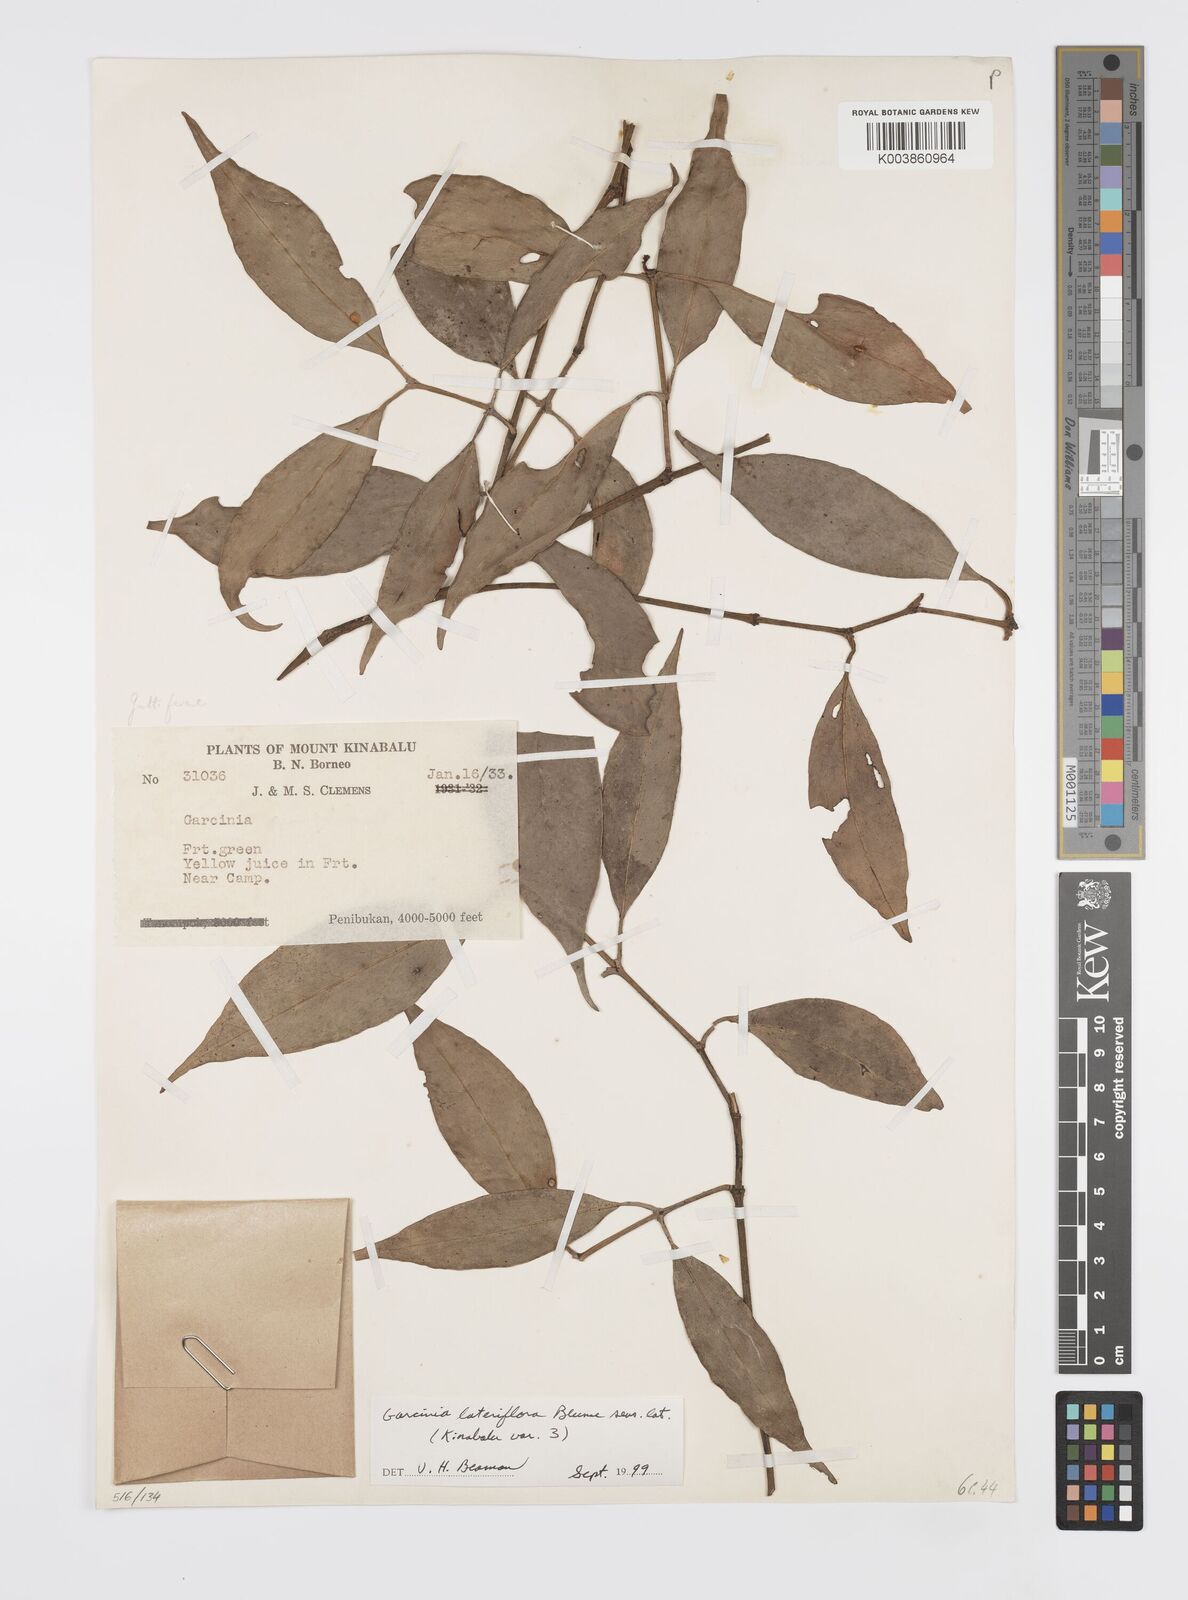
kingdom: Plantae
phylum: Tracheophyta
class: Magnoliopsida
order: Malpighiales
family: Clusiaceae
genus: Garcinia
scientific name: Garcinia lateriflora
